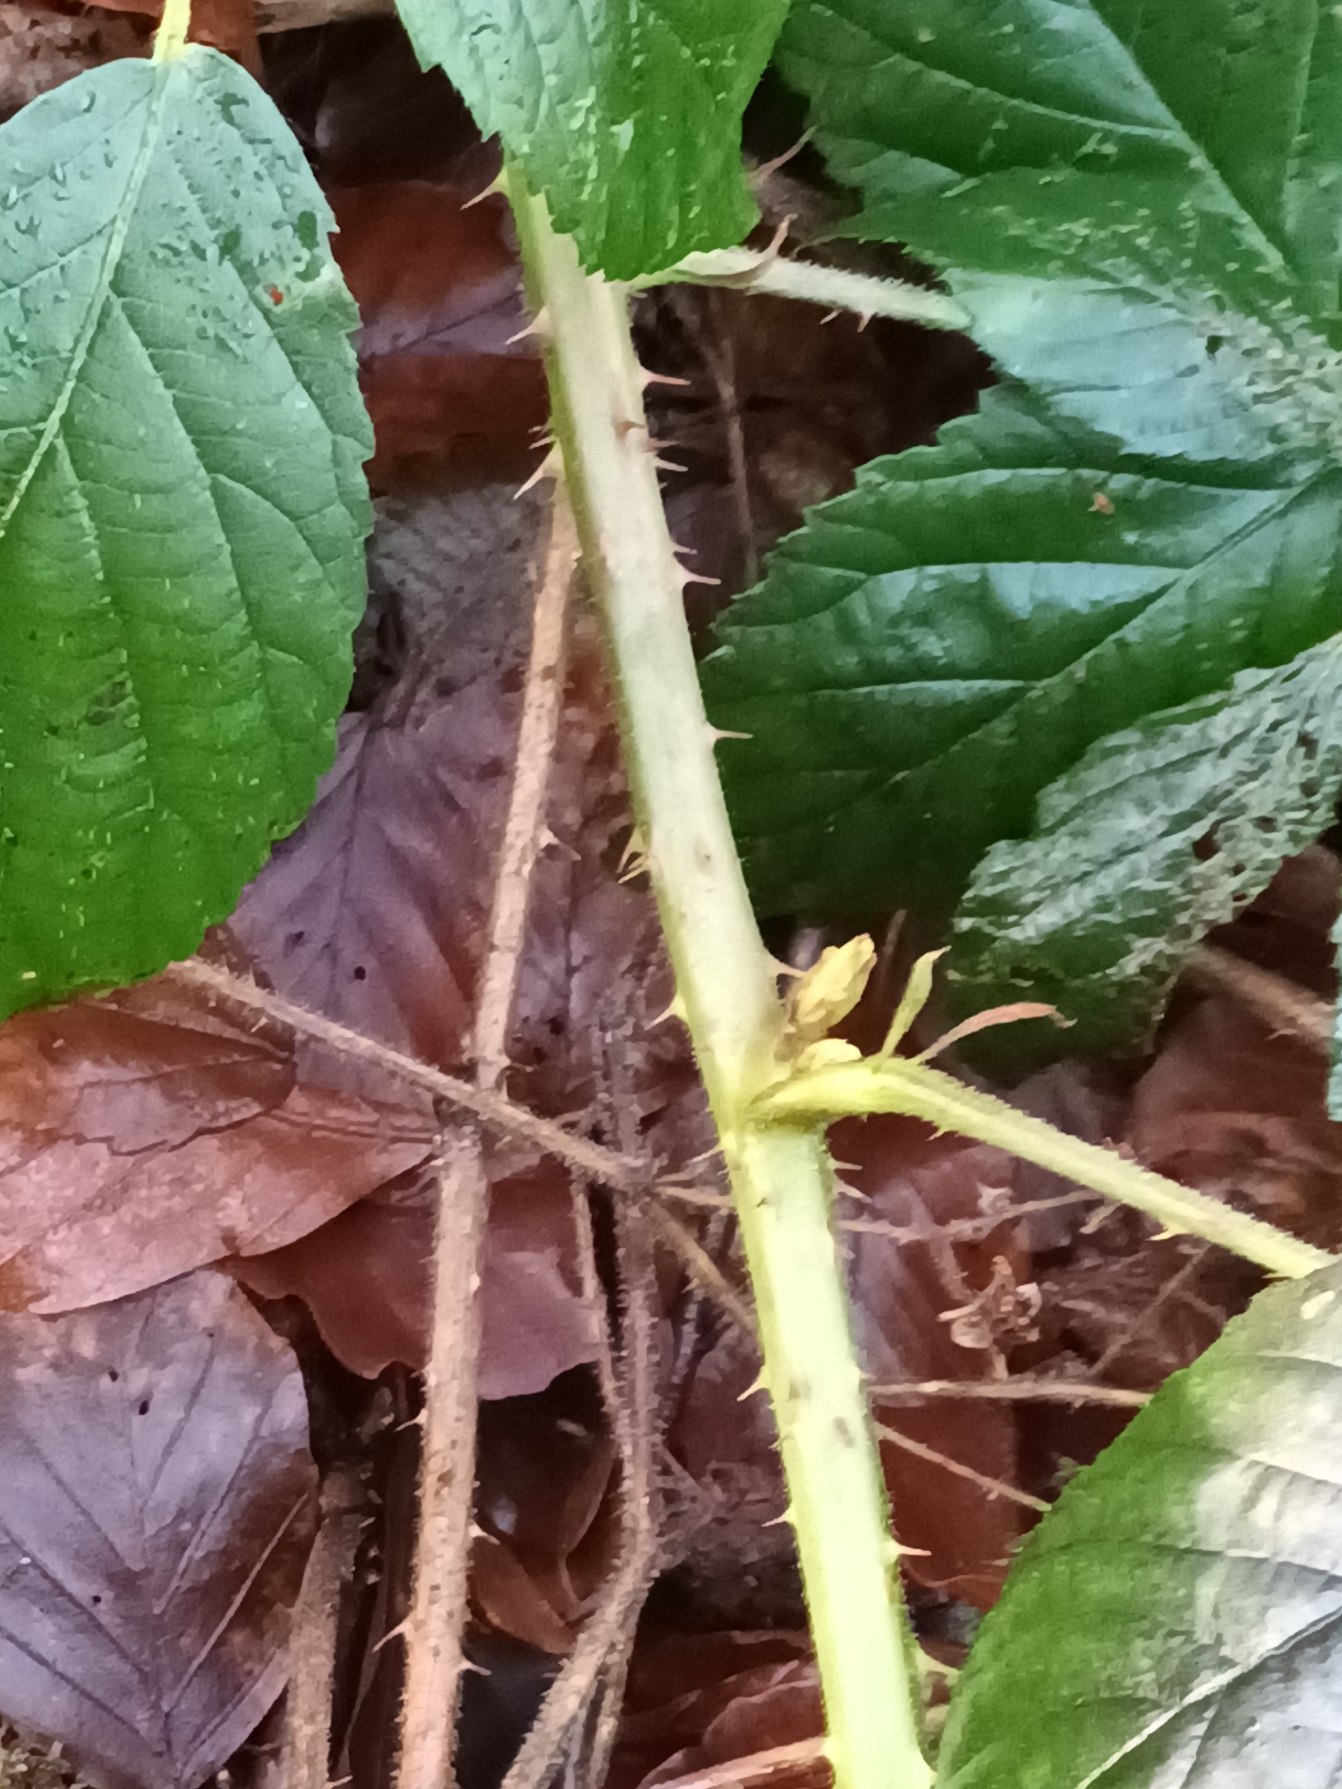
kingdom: Plantae
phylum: Tracheophyta
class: Magnoliopsida
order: Rosales
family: Rosaceae
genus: Rubus
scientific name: Rubus silvaticus
